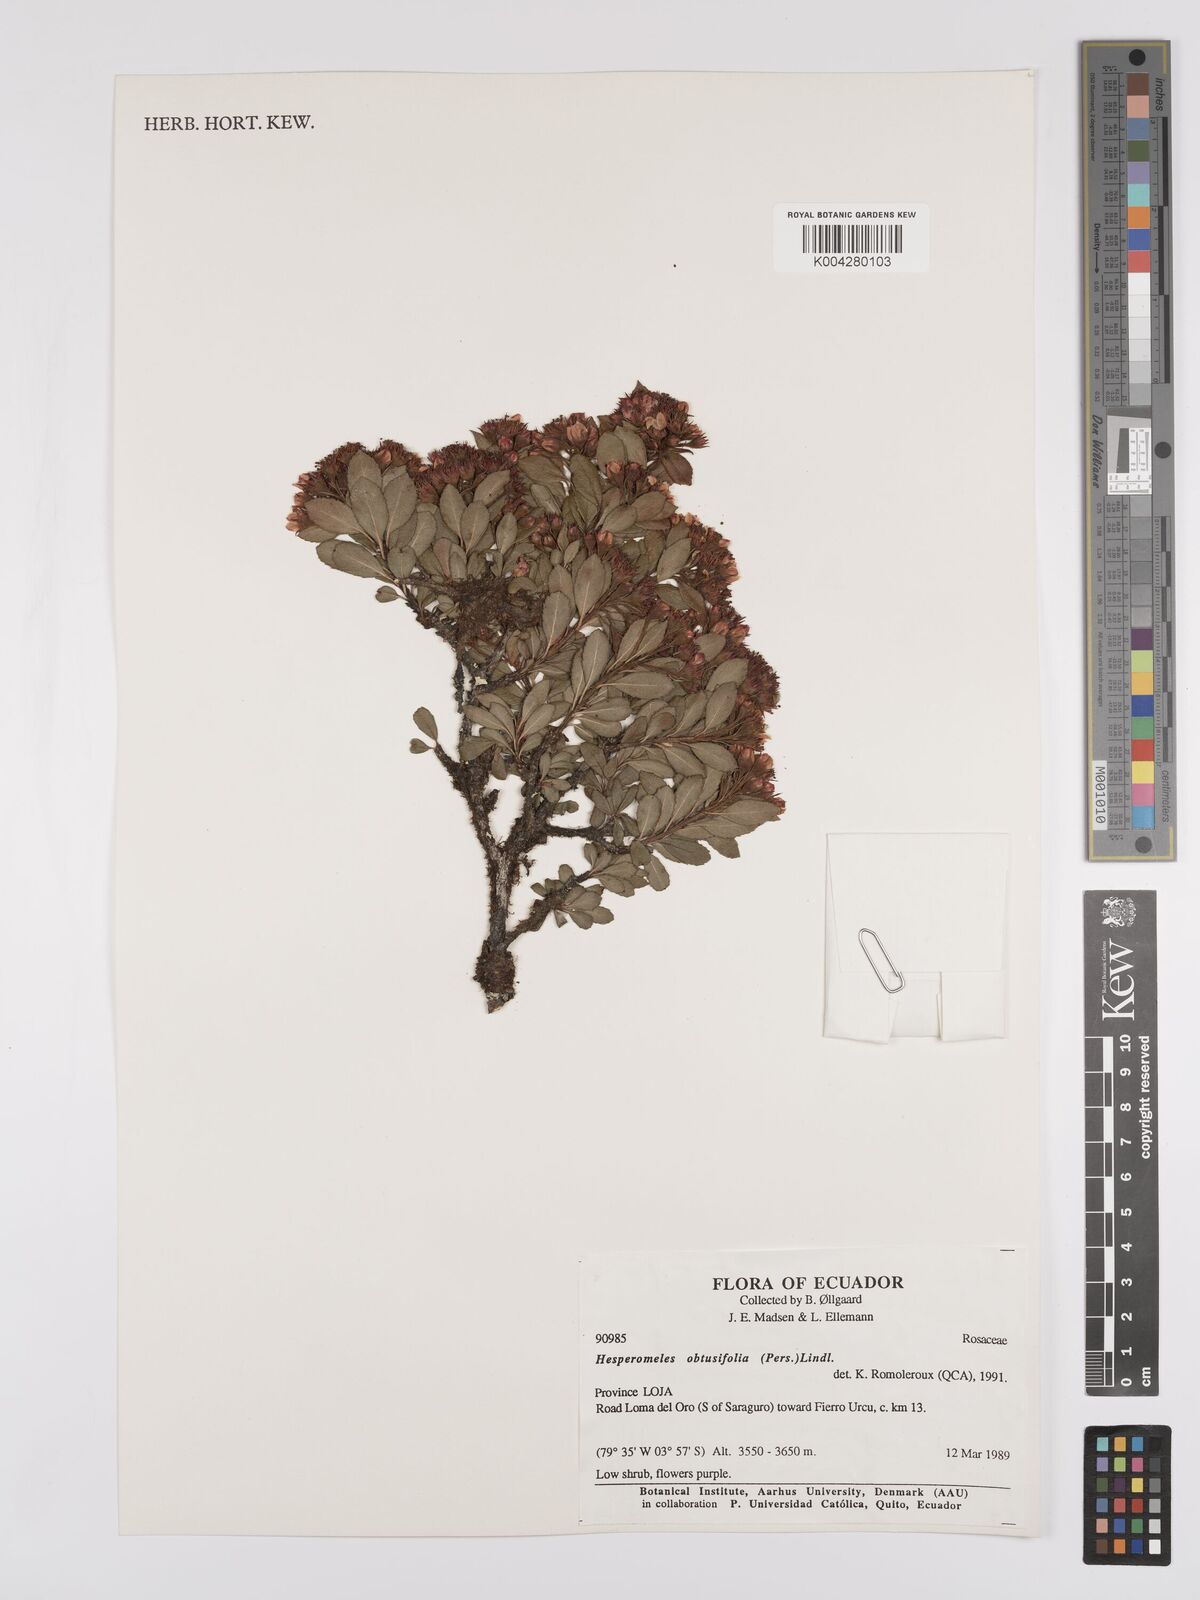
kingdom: Plantae
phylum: Tracheophyta
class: Magnoliopsida
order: Rosales
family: Rosaceae
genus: Hesperomeles
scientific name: Hesperomeles obtusifolia
